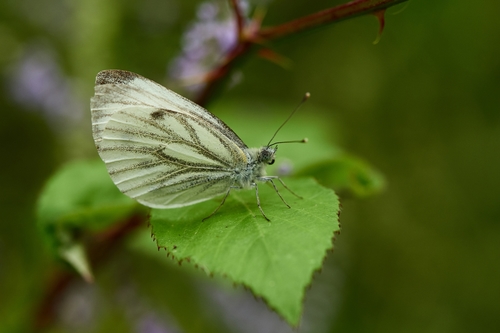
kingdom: Animalia
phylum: Arthropoda
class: Insecta
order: Lepidoptera
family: Pieridae
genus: Pieris
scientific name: Pieris napi
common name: Green-veined white
